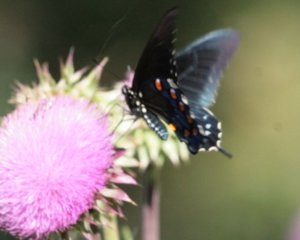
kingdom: Animalia
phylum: Arthropoda
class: Insecta
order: Lepidoptera
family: Papilionidae
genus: Battus
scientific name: Battus philenor
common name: Pipevine Swallowtail
